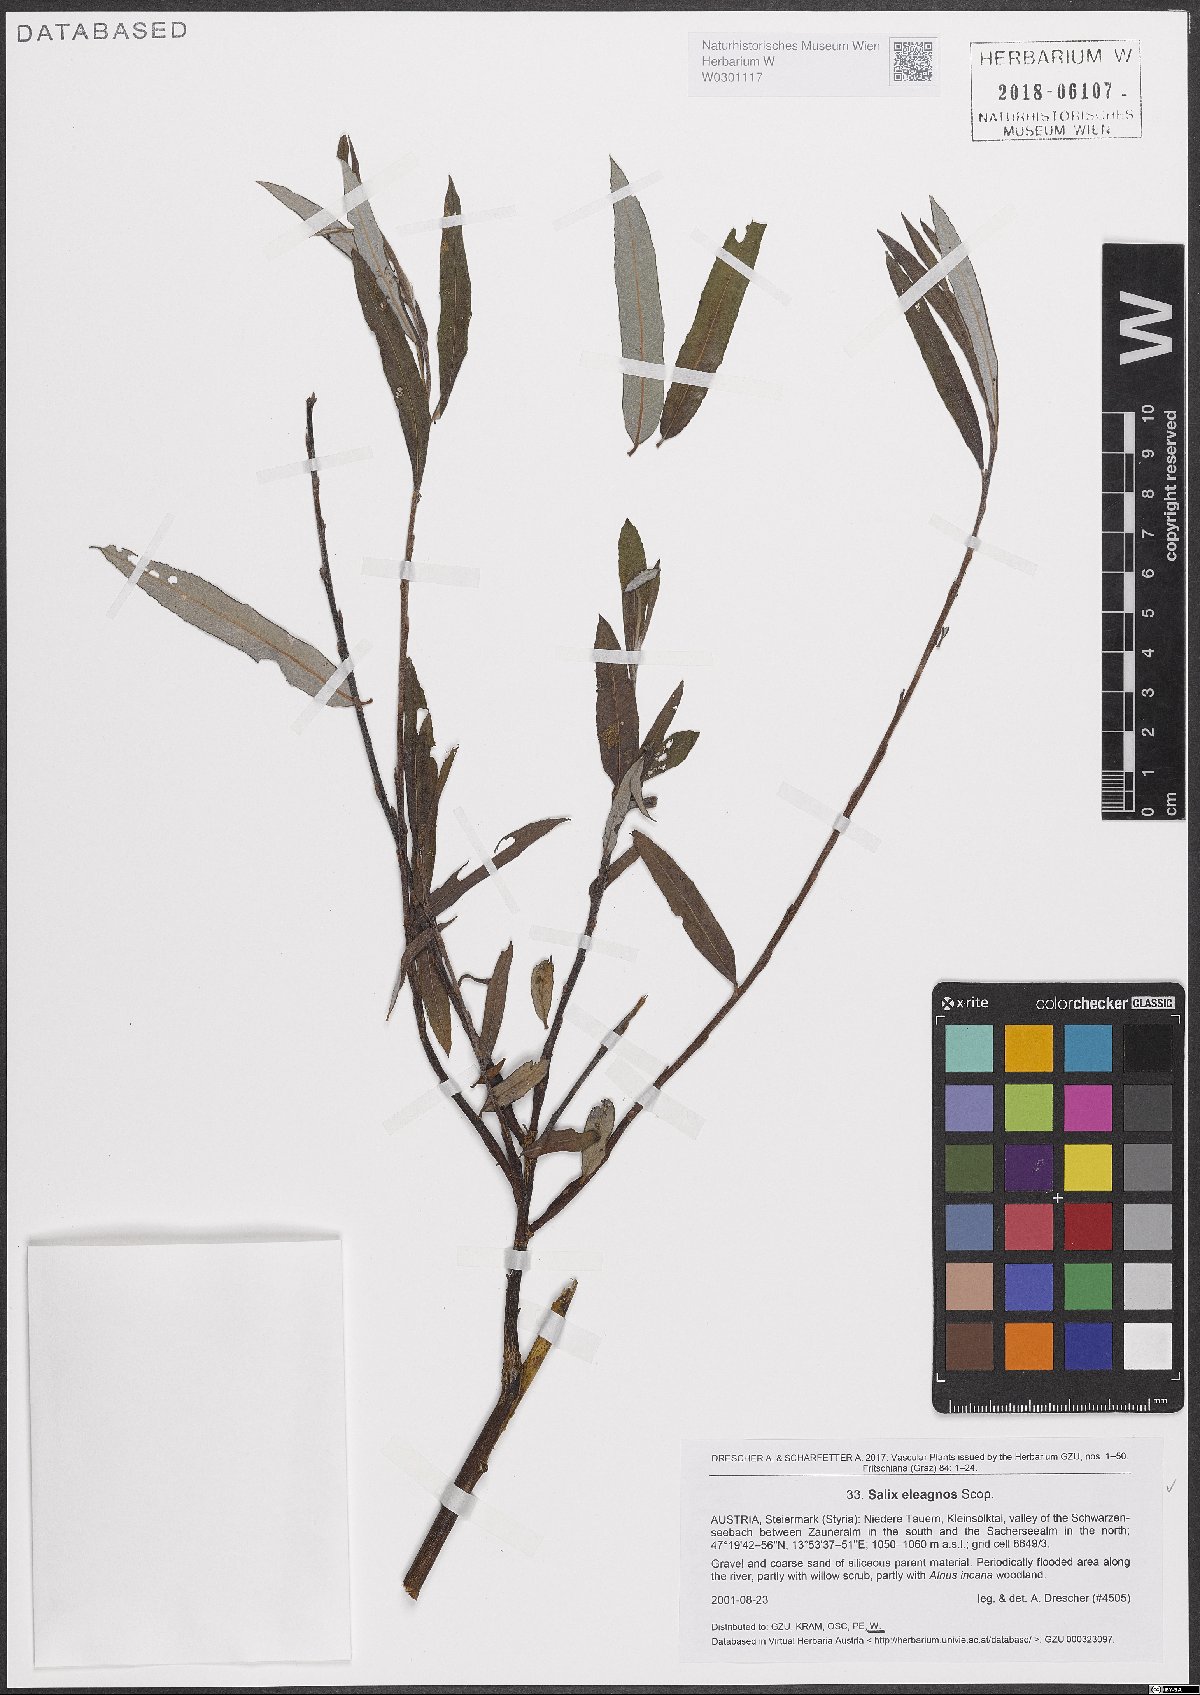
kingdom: Plantae
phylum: Tracheophyta
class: Magnoliopsida
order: Malpighiales
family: Salicaceae
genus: Salix
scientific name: Salix eleagnos
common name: Elaeagnus willow
